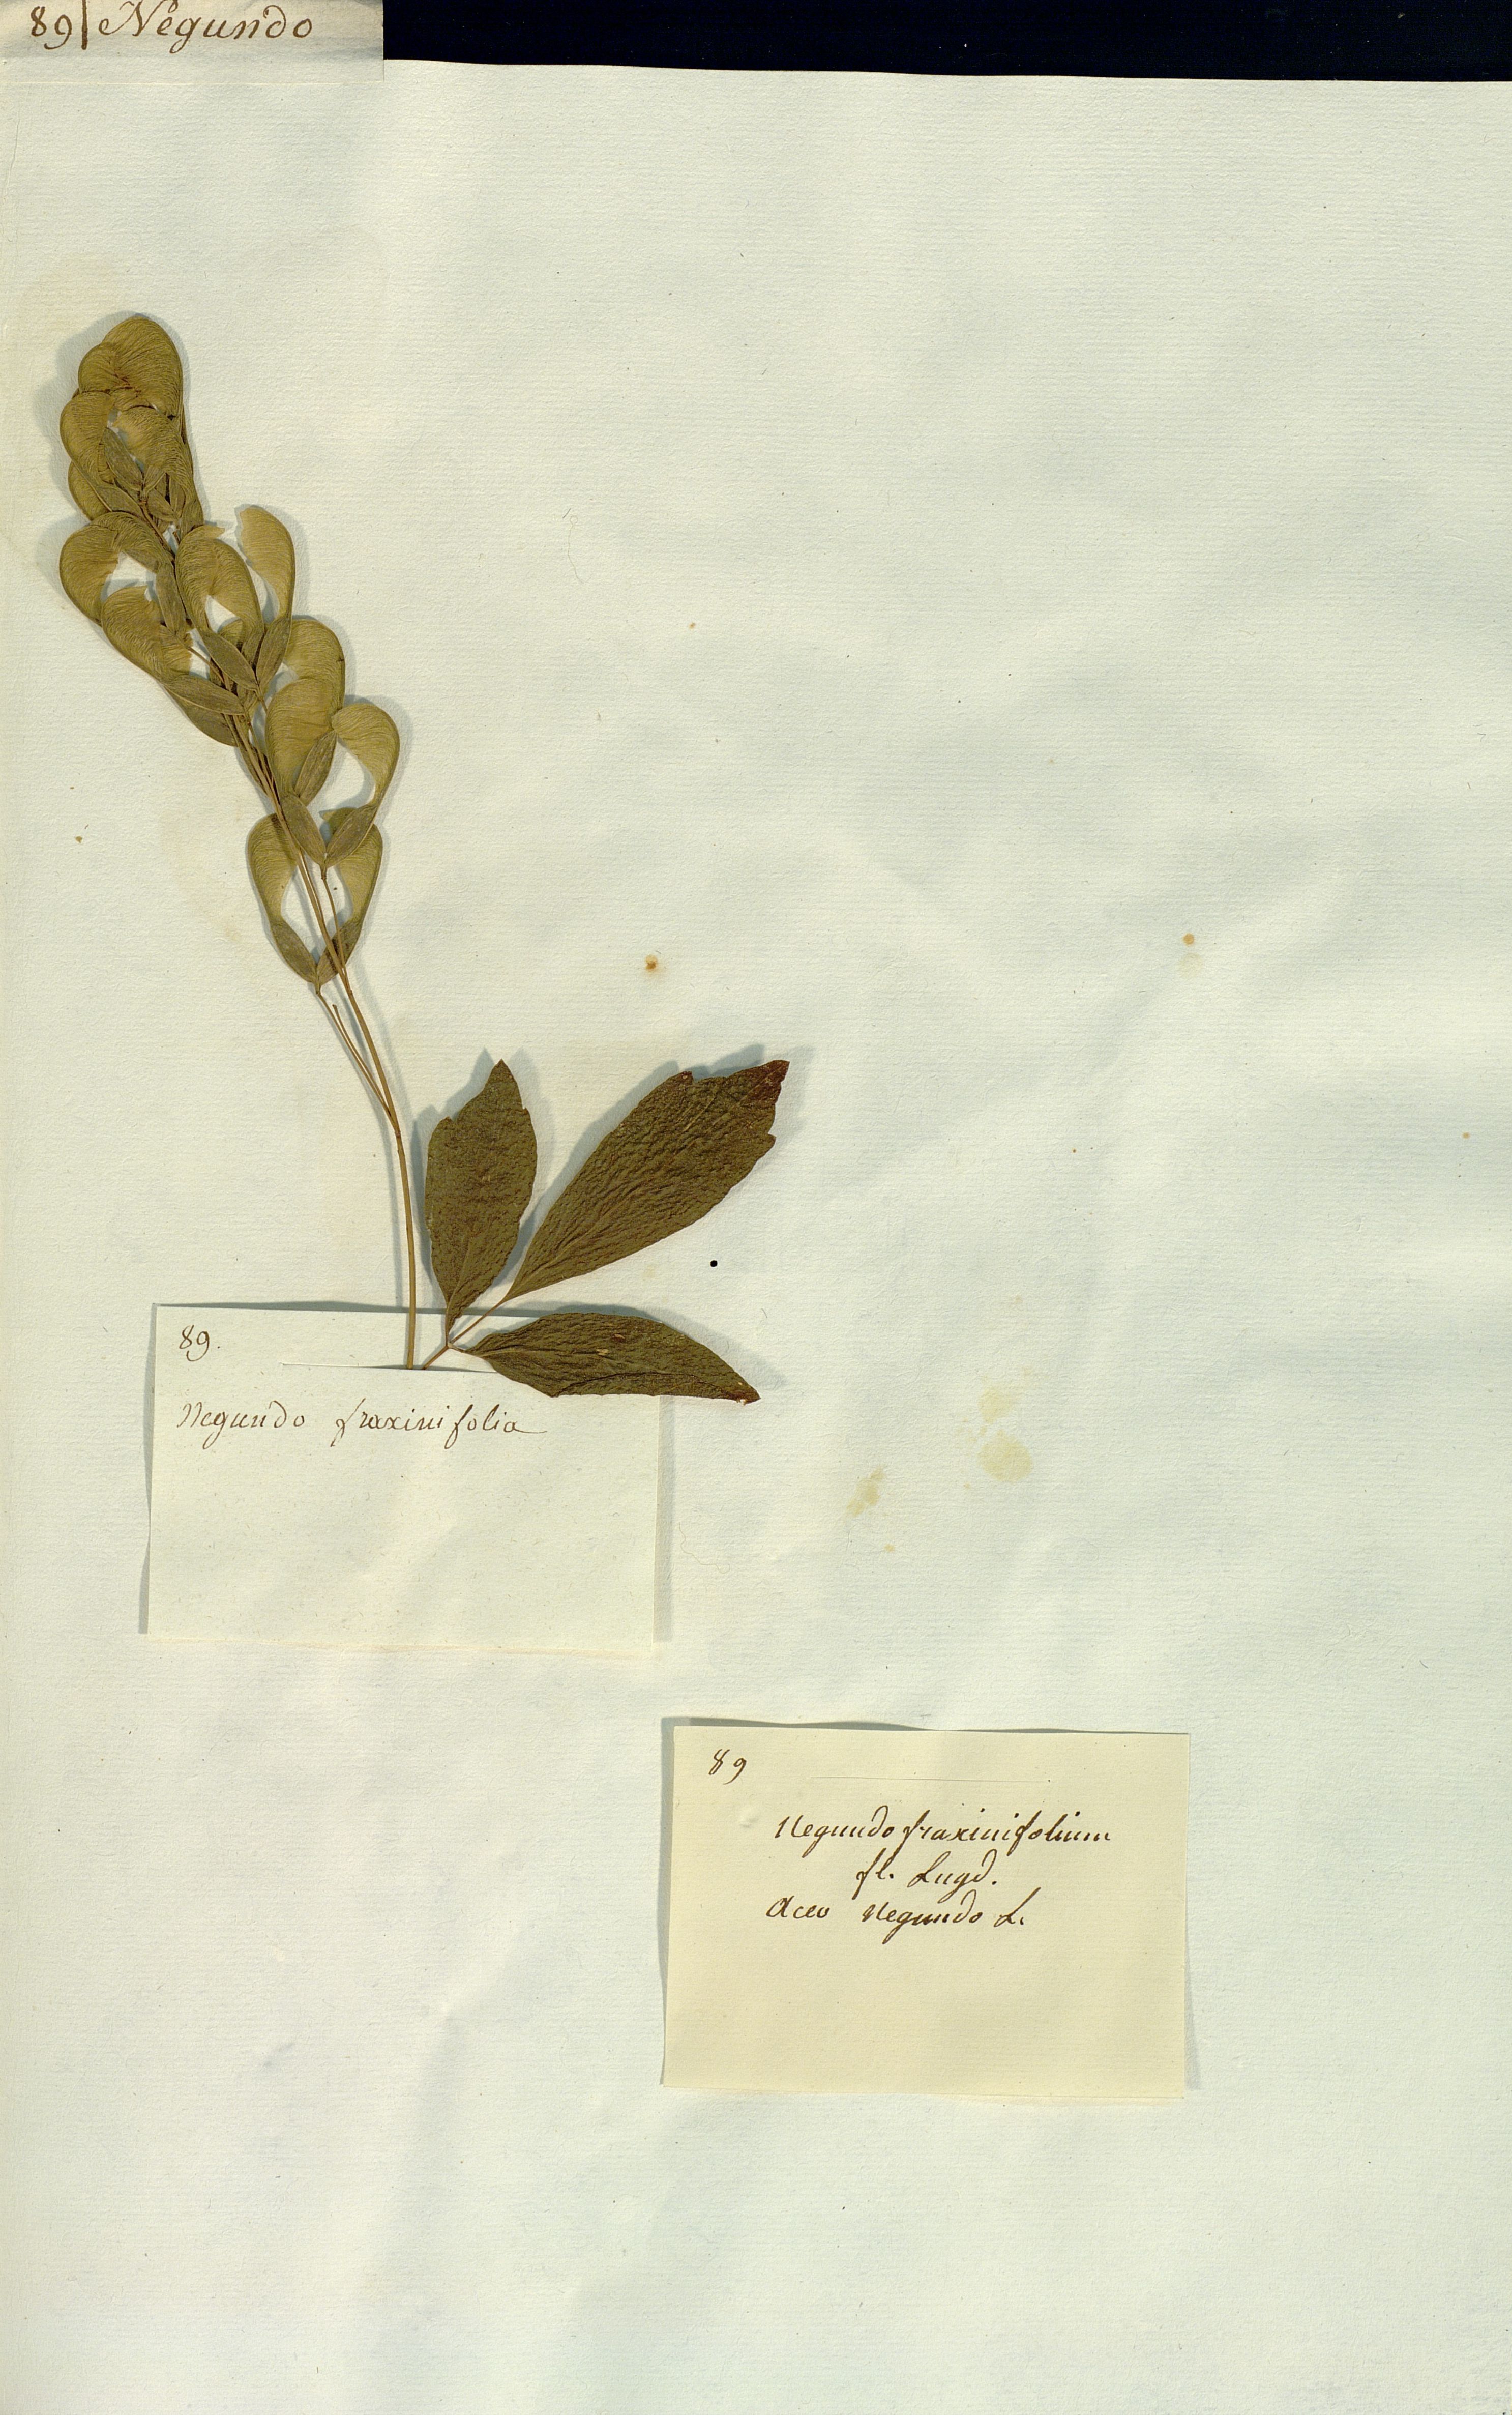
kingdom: Plantae
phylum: Tracheophyta
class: Magnoliopsida
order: Sapindales
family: Sapindaceae
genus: Acer
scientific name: Acer negundo
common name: Ashleaf maple
